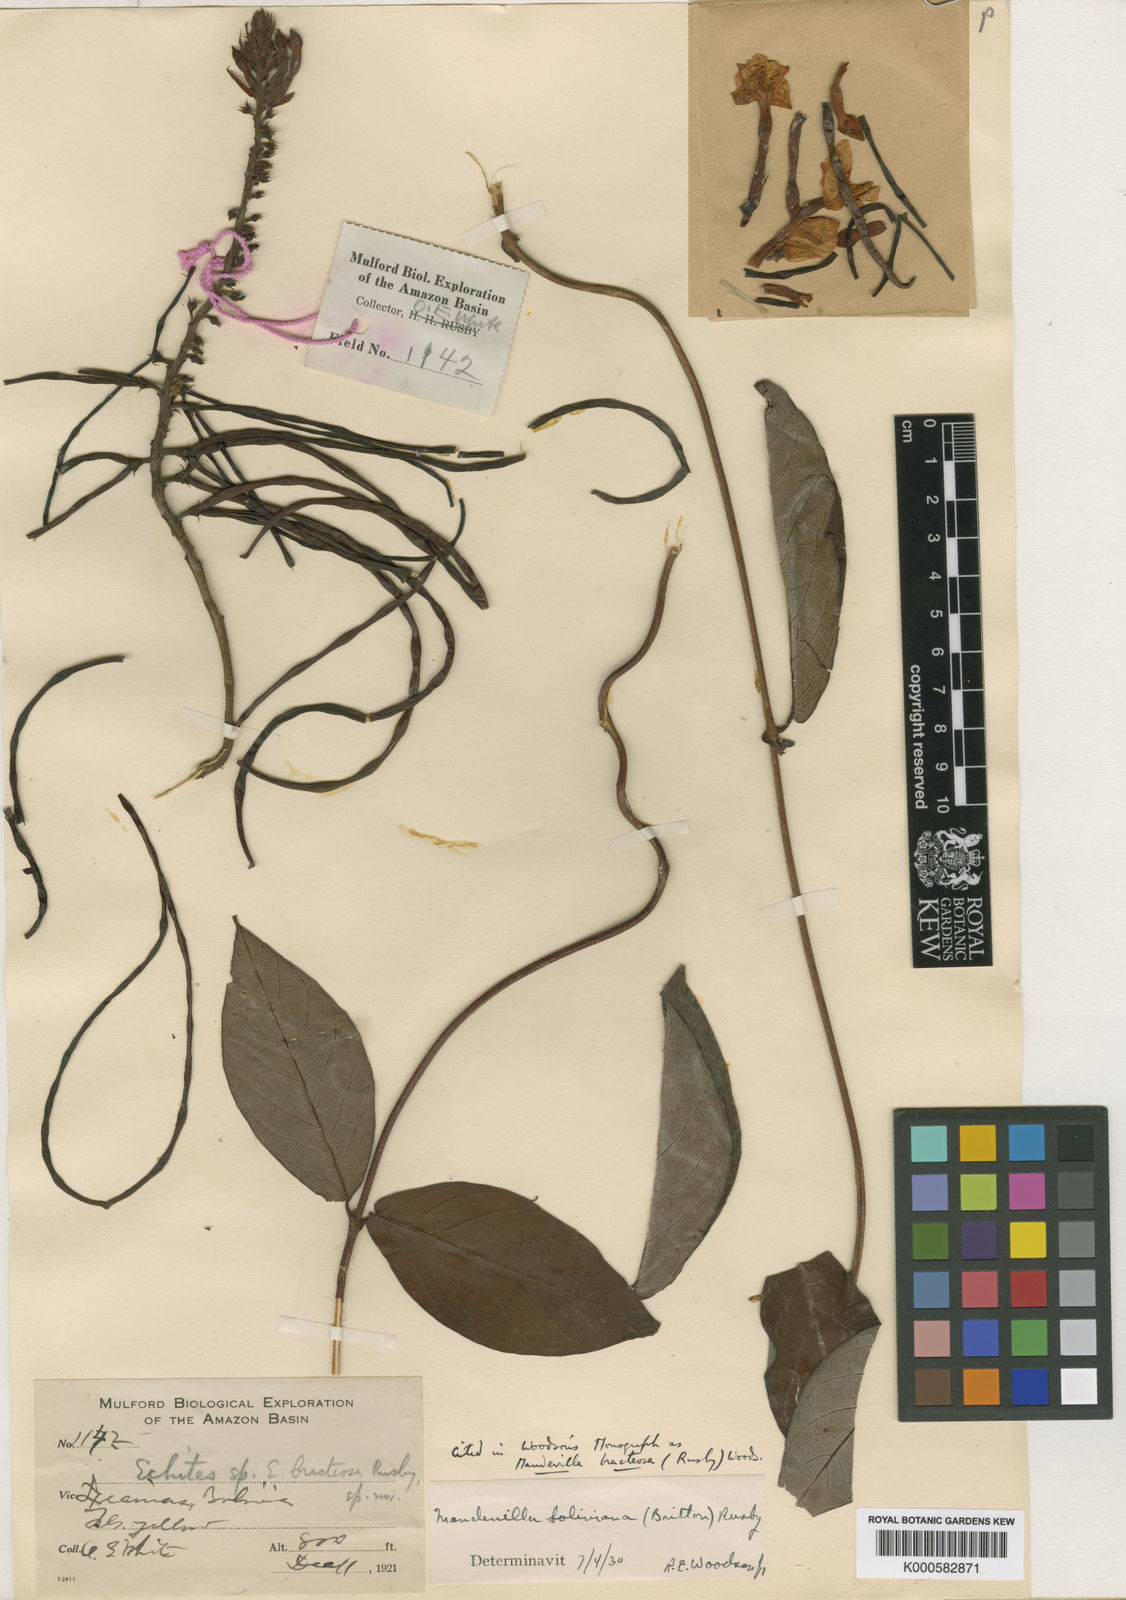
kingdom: Plantae
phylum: Tracheophyta
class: Magnoliopsida
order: Gentianales
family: Apocynaceae
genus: Mandevilla
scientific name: Mandevilla rugellosa
